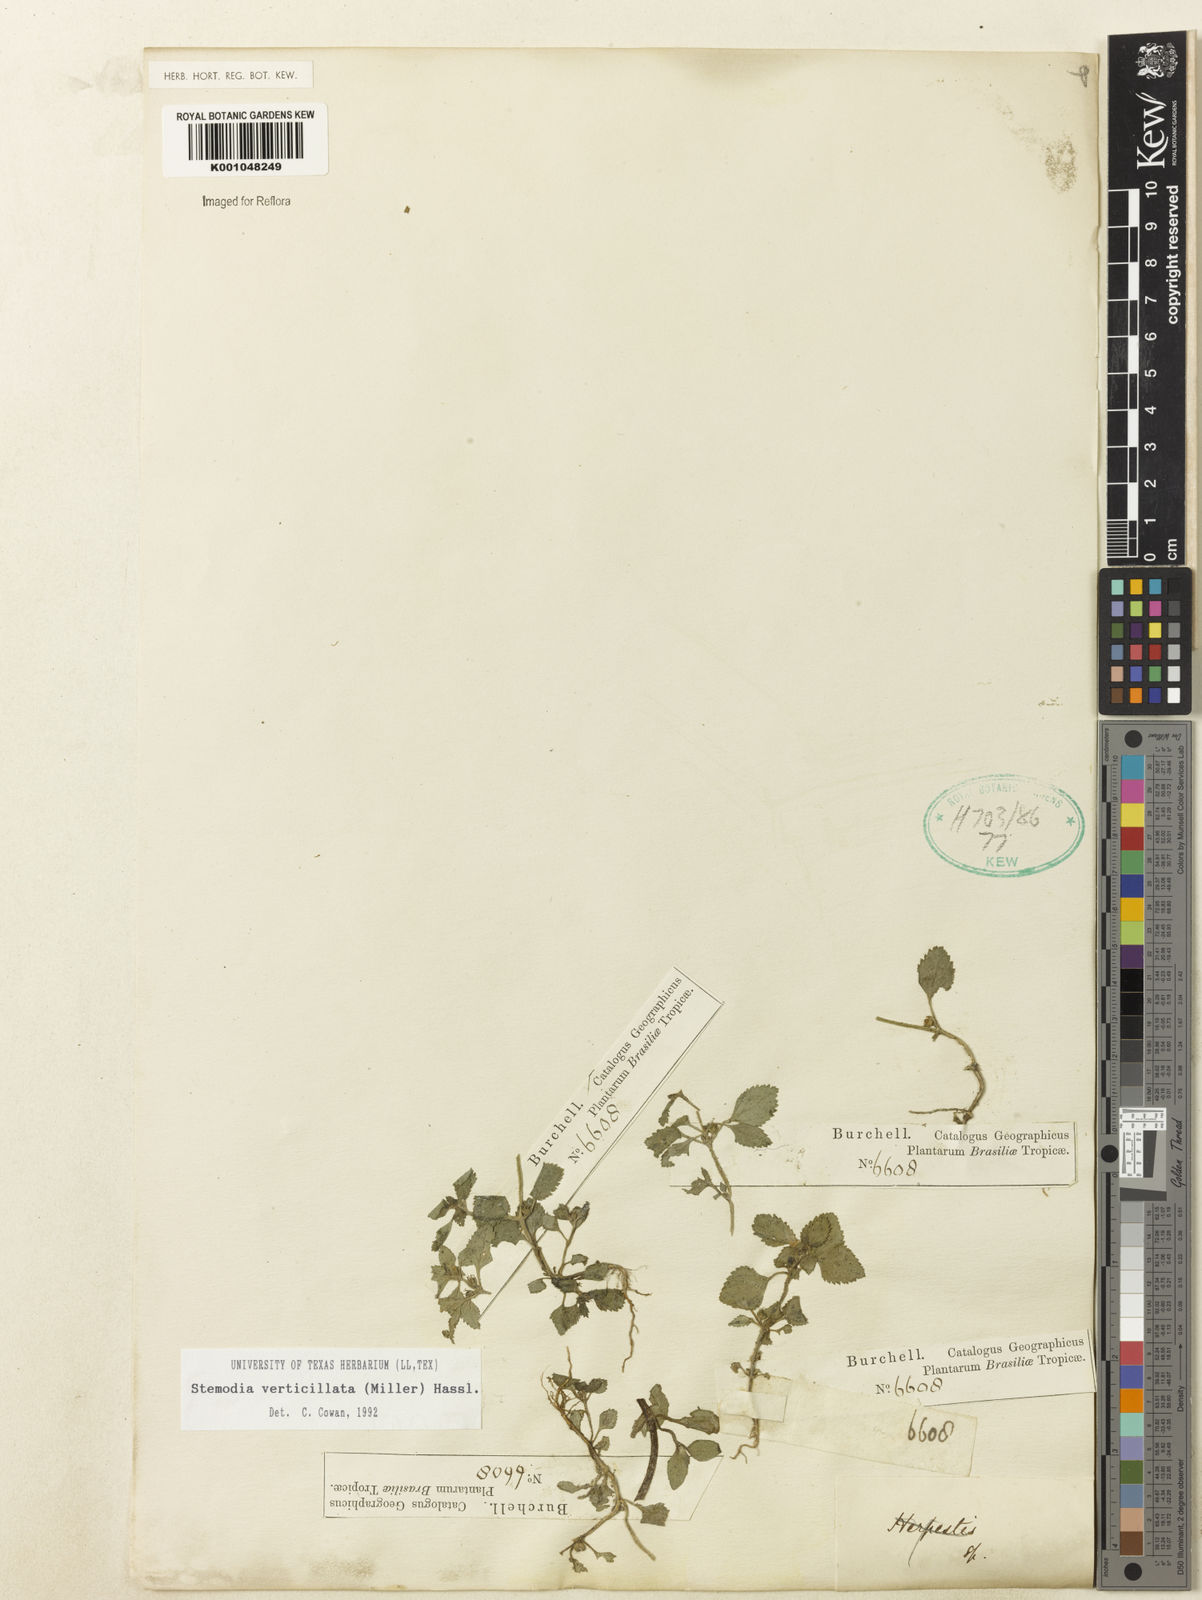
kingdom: Plantae
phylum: Tracheophyta
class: Magnoliopsida
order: Lamiales
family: Plantaginaceae
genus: Stemodia
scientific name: Stemodia verticillata
